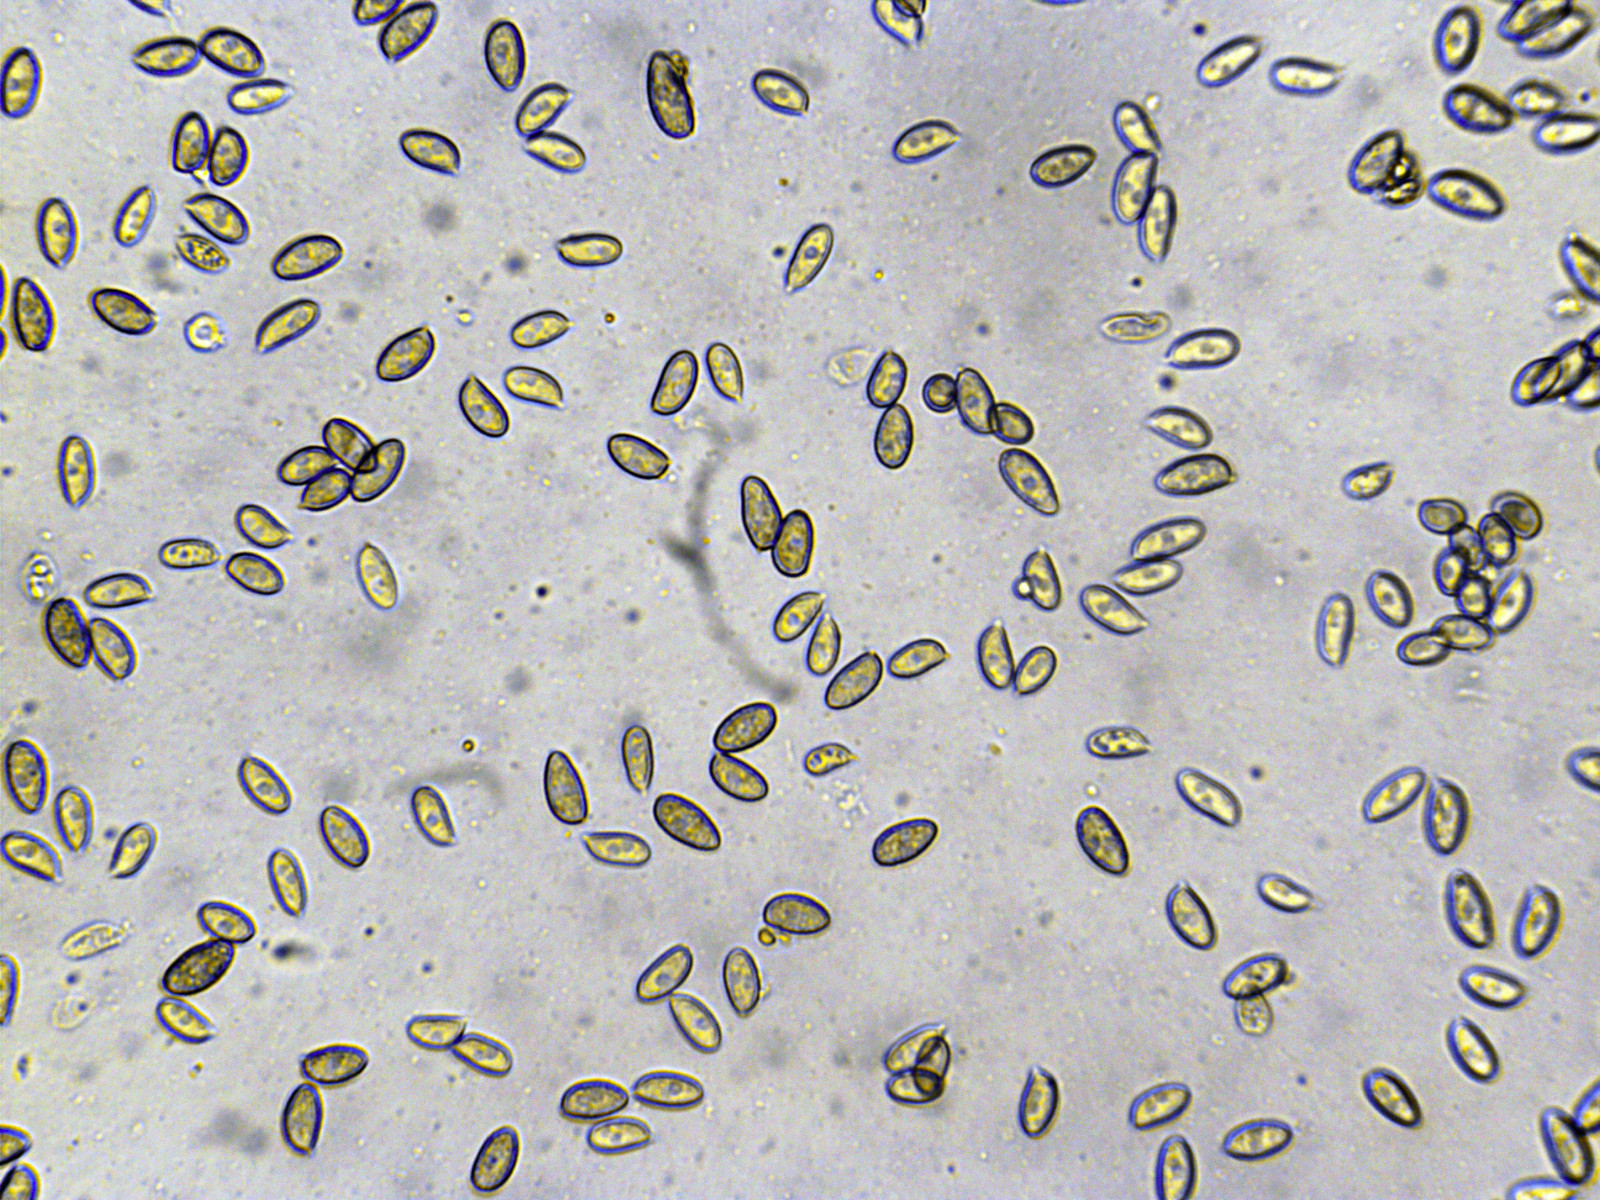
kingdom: Fungi
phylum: Basidiomycota
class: Agaricomycetes
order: Agaricales
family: Hymenogastraceae
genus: Galerina
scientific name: Galerina clavata
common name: kær-hjelmhat
